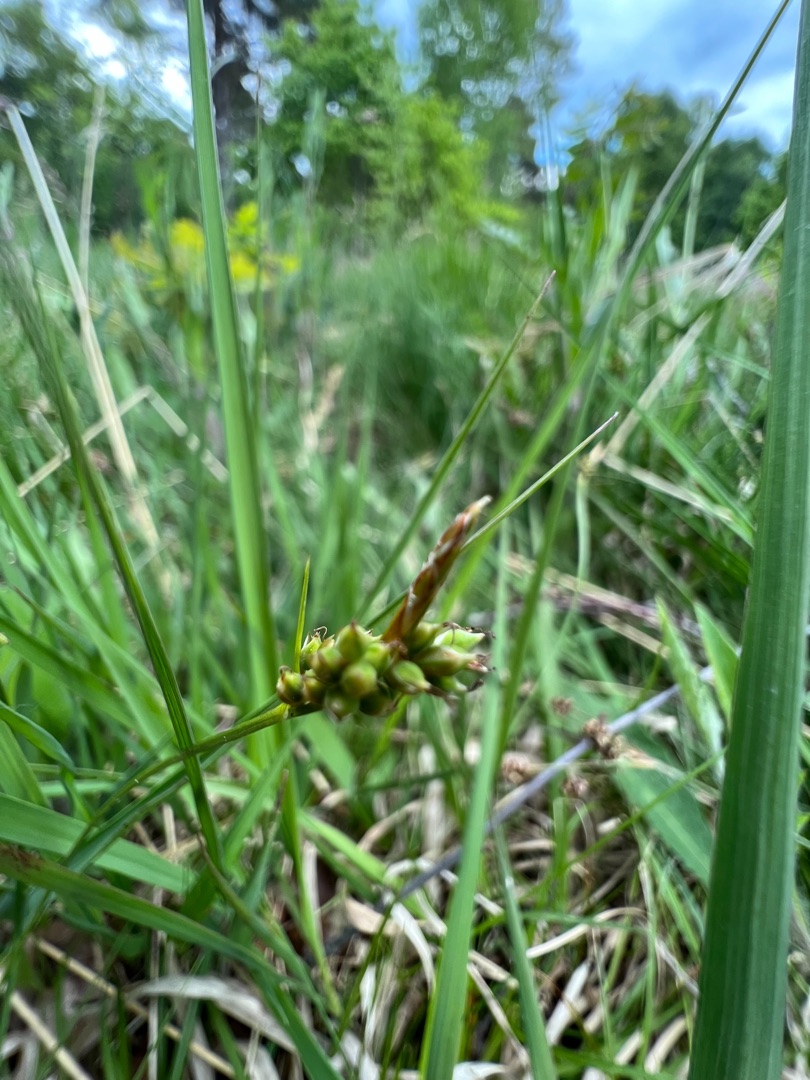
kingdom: Plantae
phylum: Tracheophyta
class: Liliopsida
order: Poales
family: Cyperaceae
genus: Carex
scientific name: Carex pilulifera
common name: Pille-star
